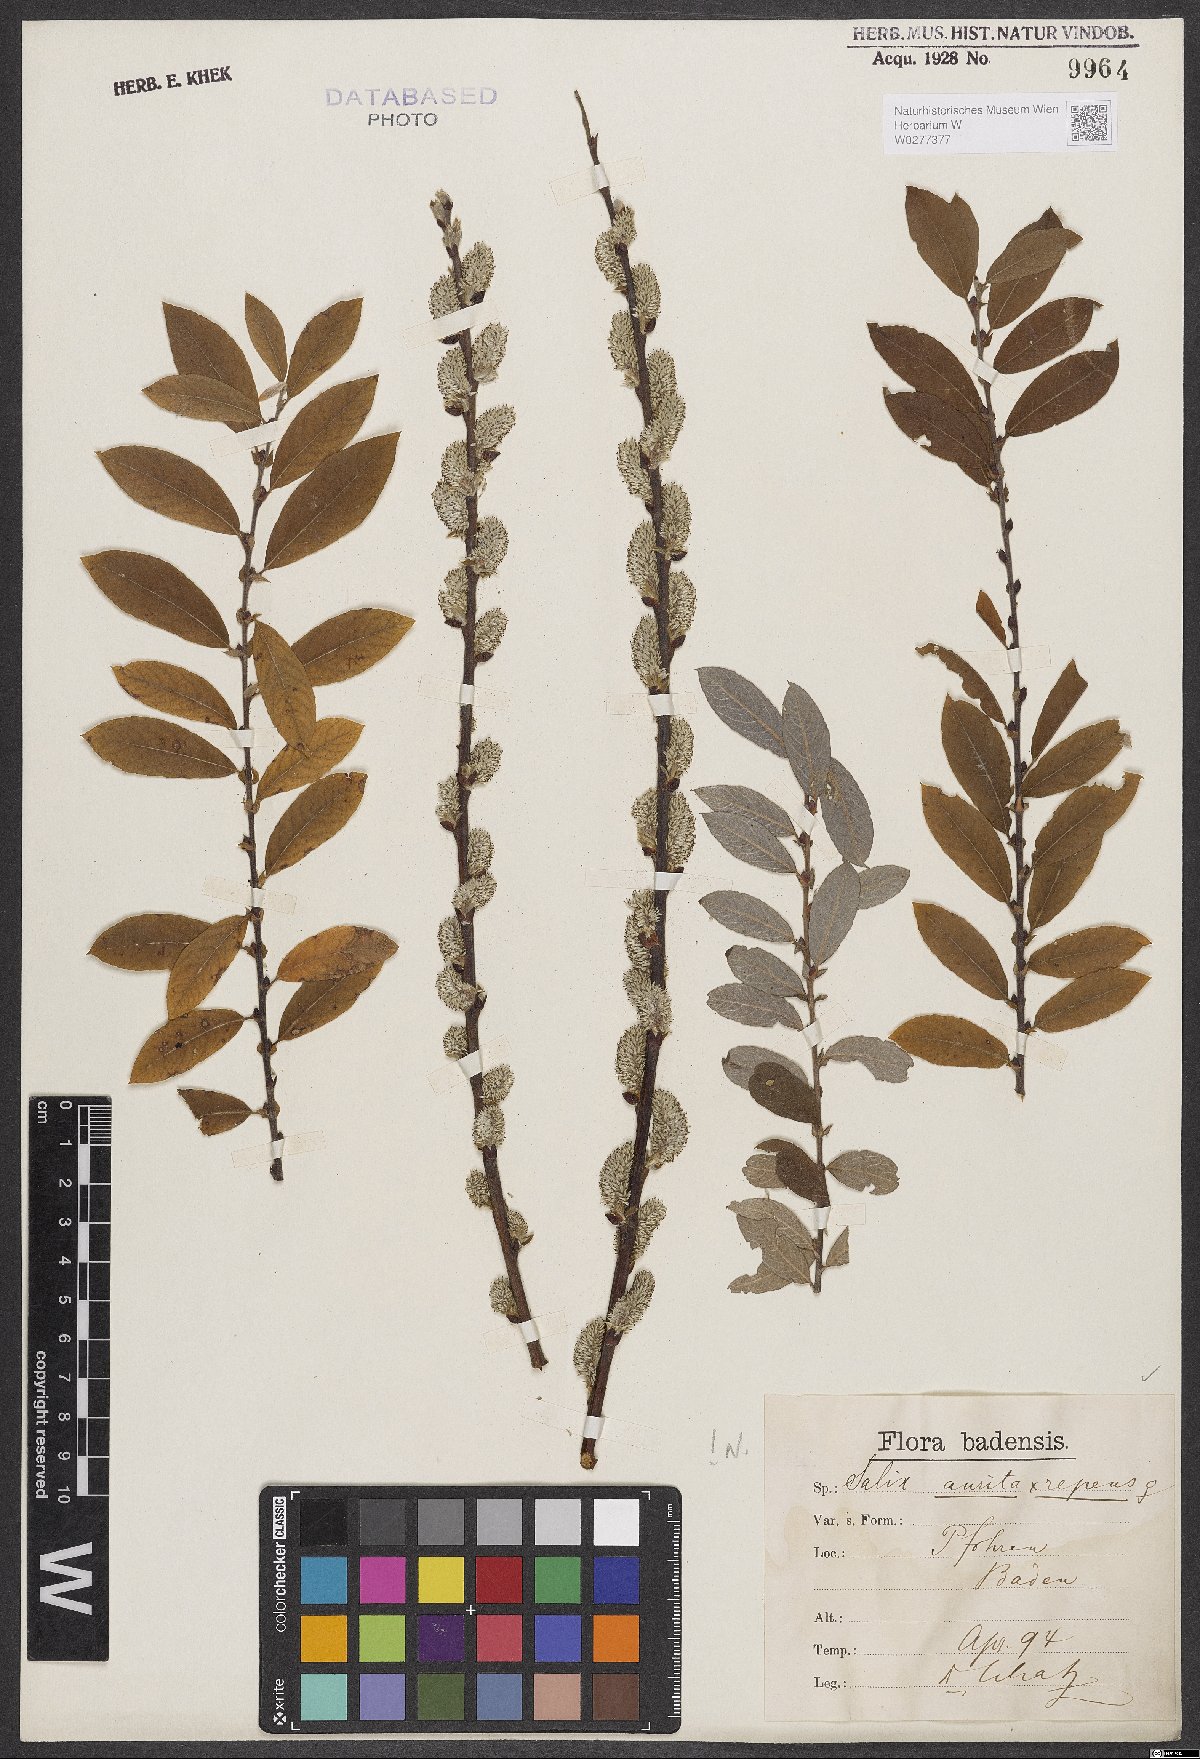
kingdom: Plantae
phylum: Tracheophyta
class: Magnoliopsida
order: Malpighiales
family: Salicaceae
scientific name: Salicaceae
